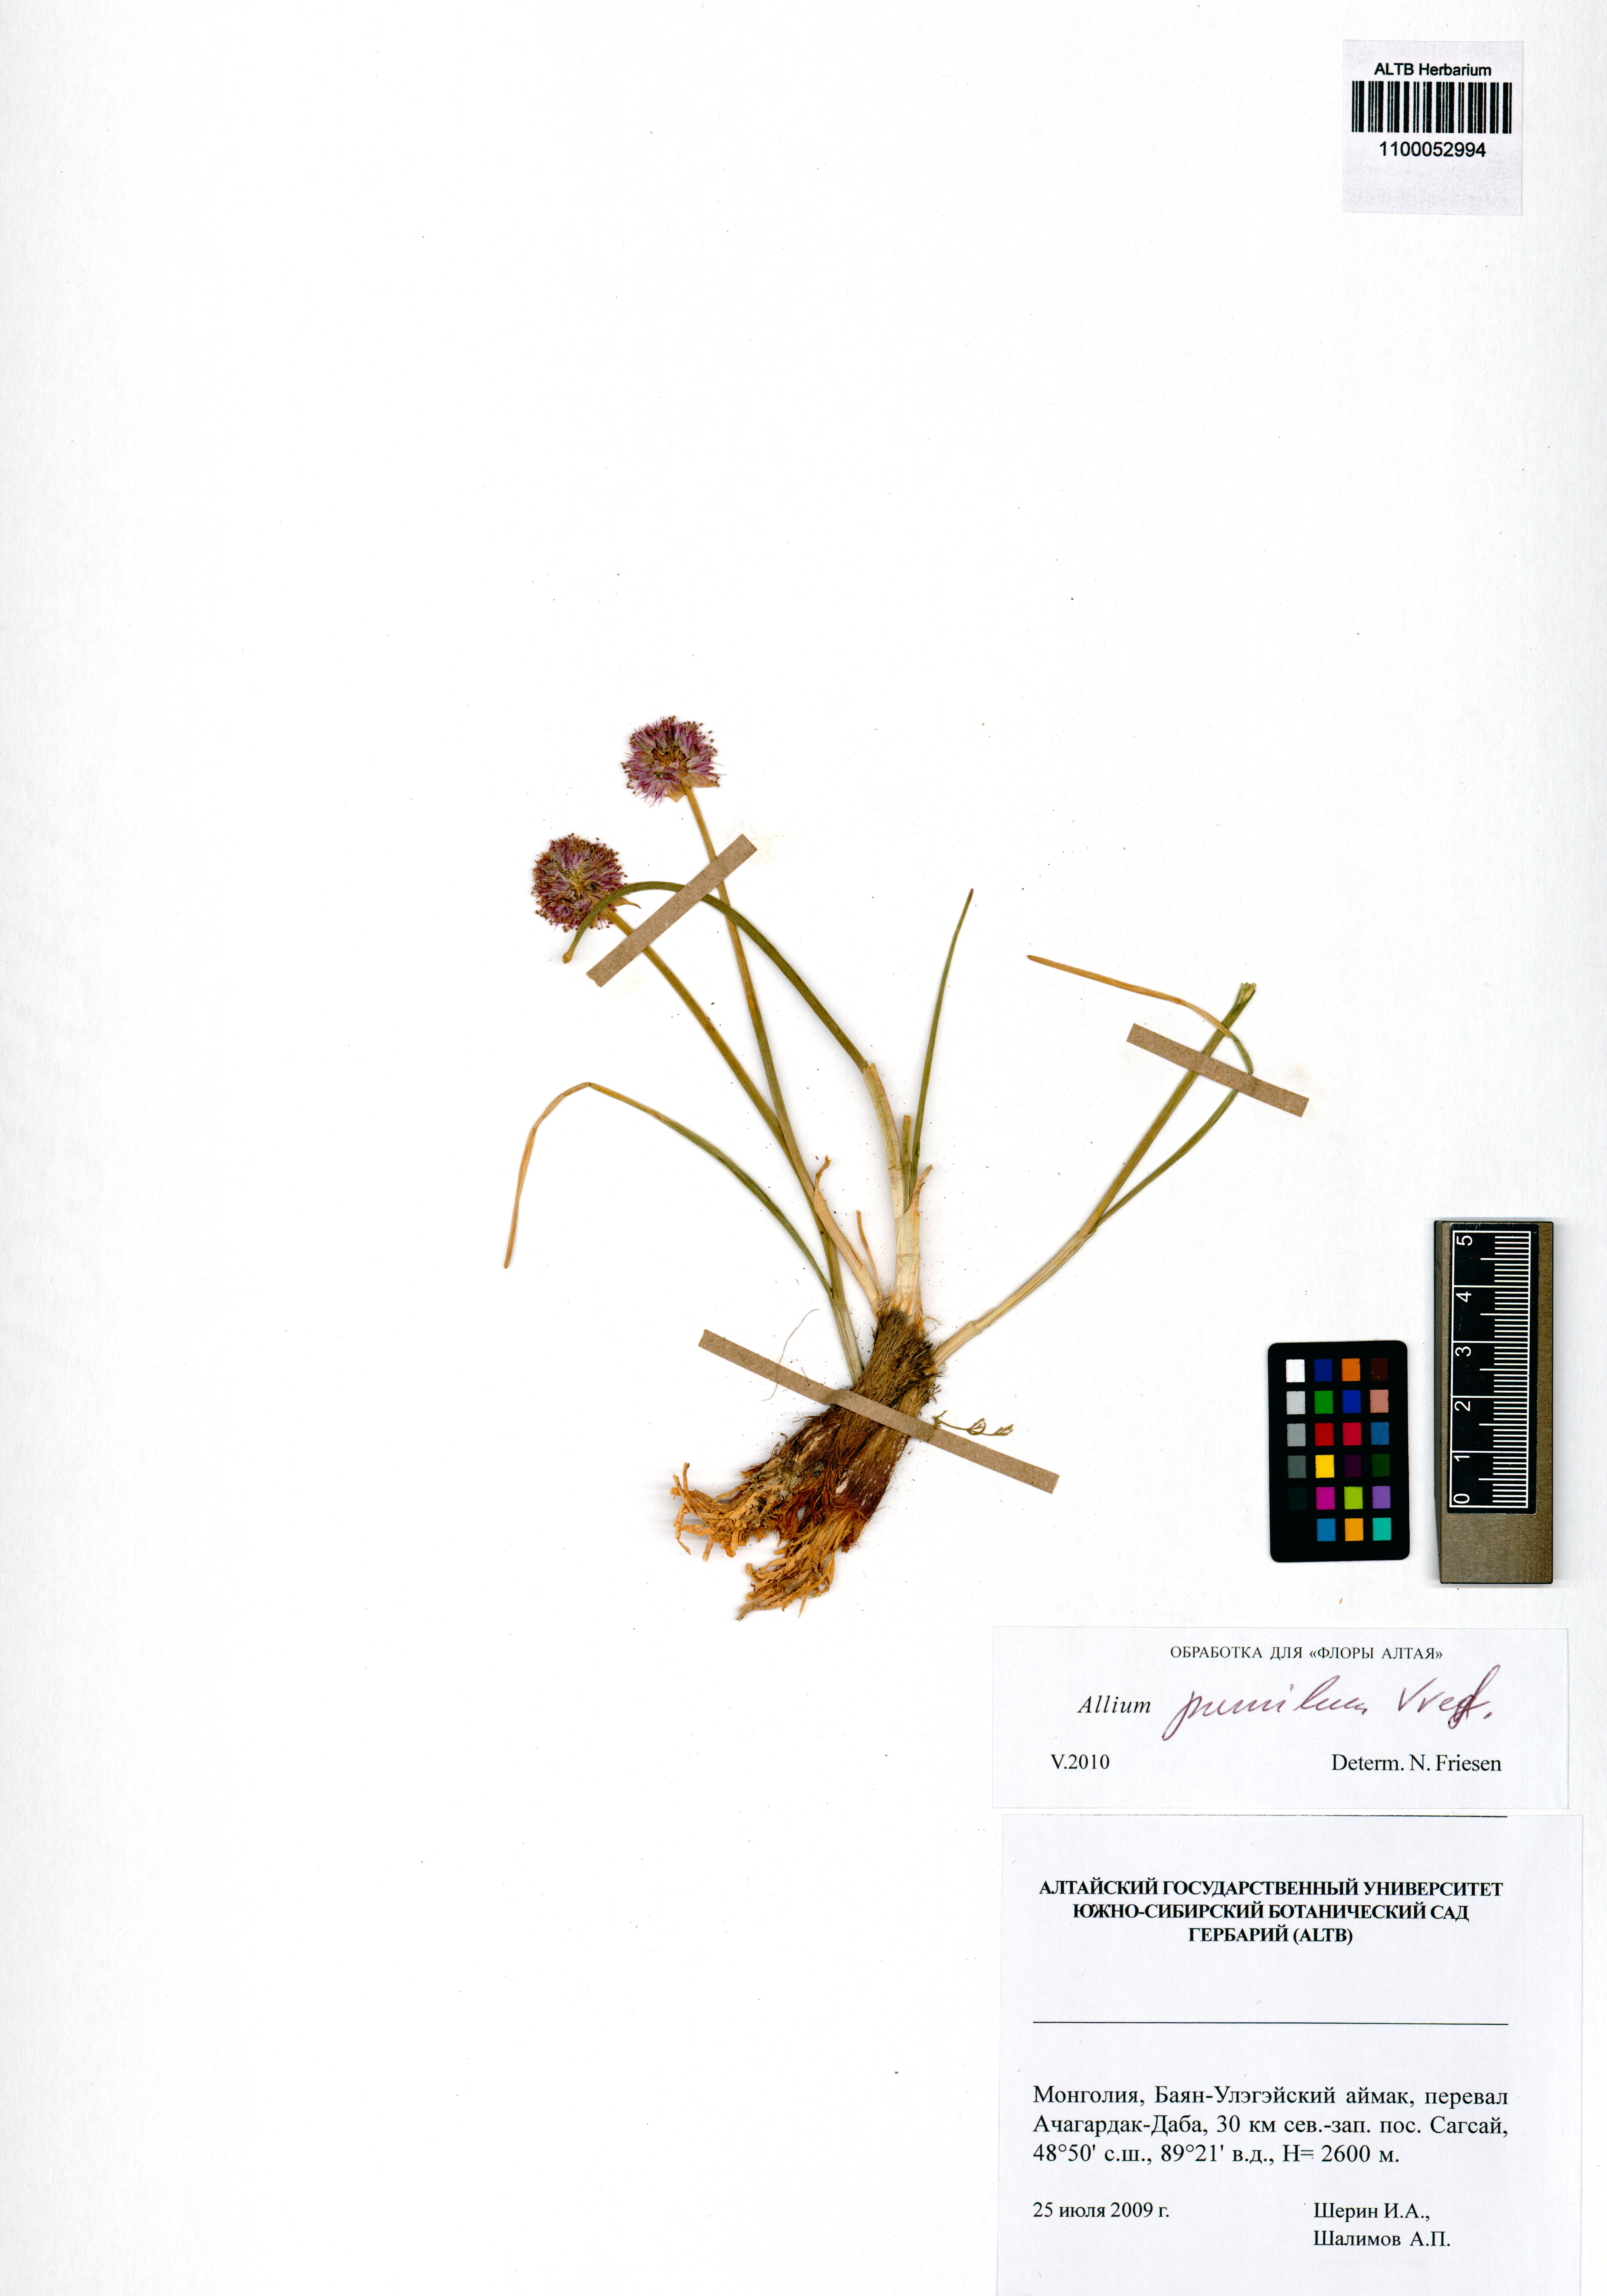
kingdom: Plantae
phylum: Tracheophyta
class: Liliopsida
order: Asparagales
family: Amaryllidaceae
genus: Allium
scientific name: Allium pumilum
